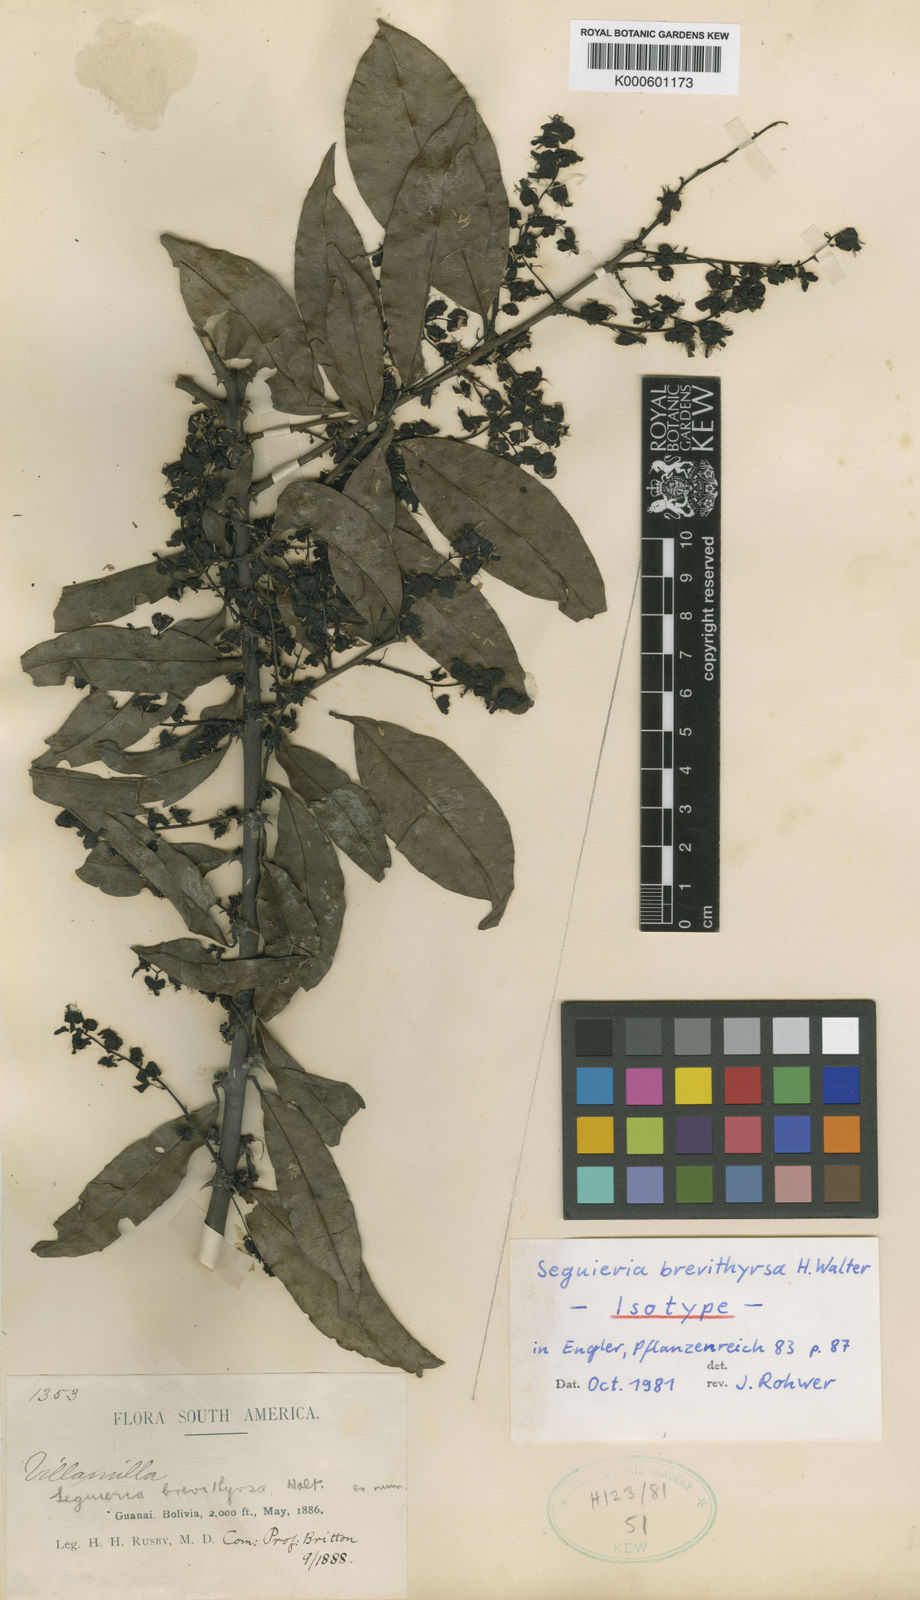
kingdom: Plantae
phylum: Tracheophyta
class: Magnoliopsida
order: Caryophyllales
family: Phytolaccaceae
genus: Seguieria
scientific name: Seguieria brevithyrsa
